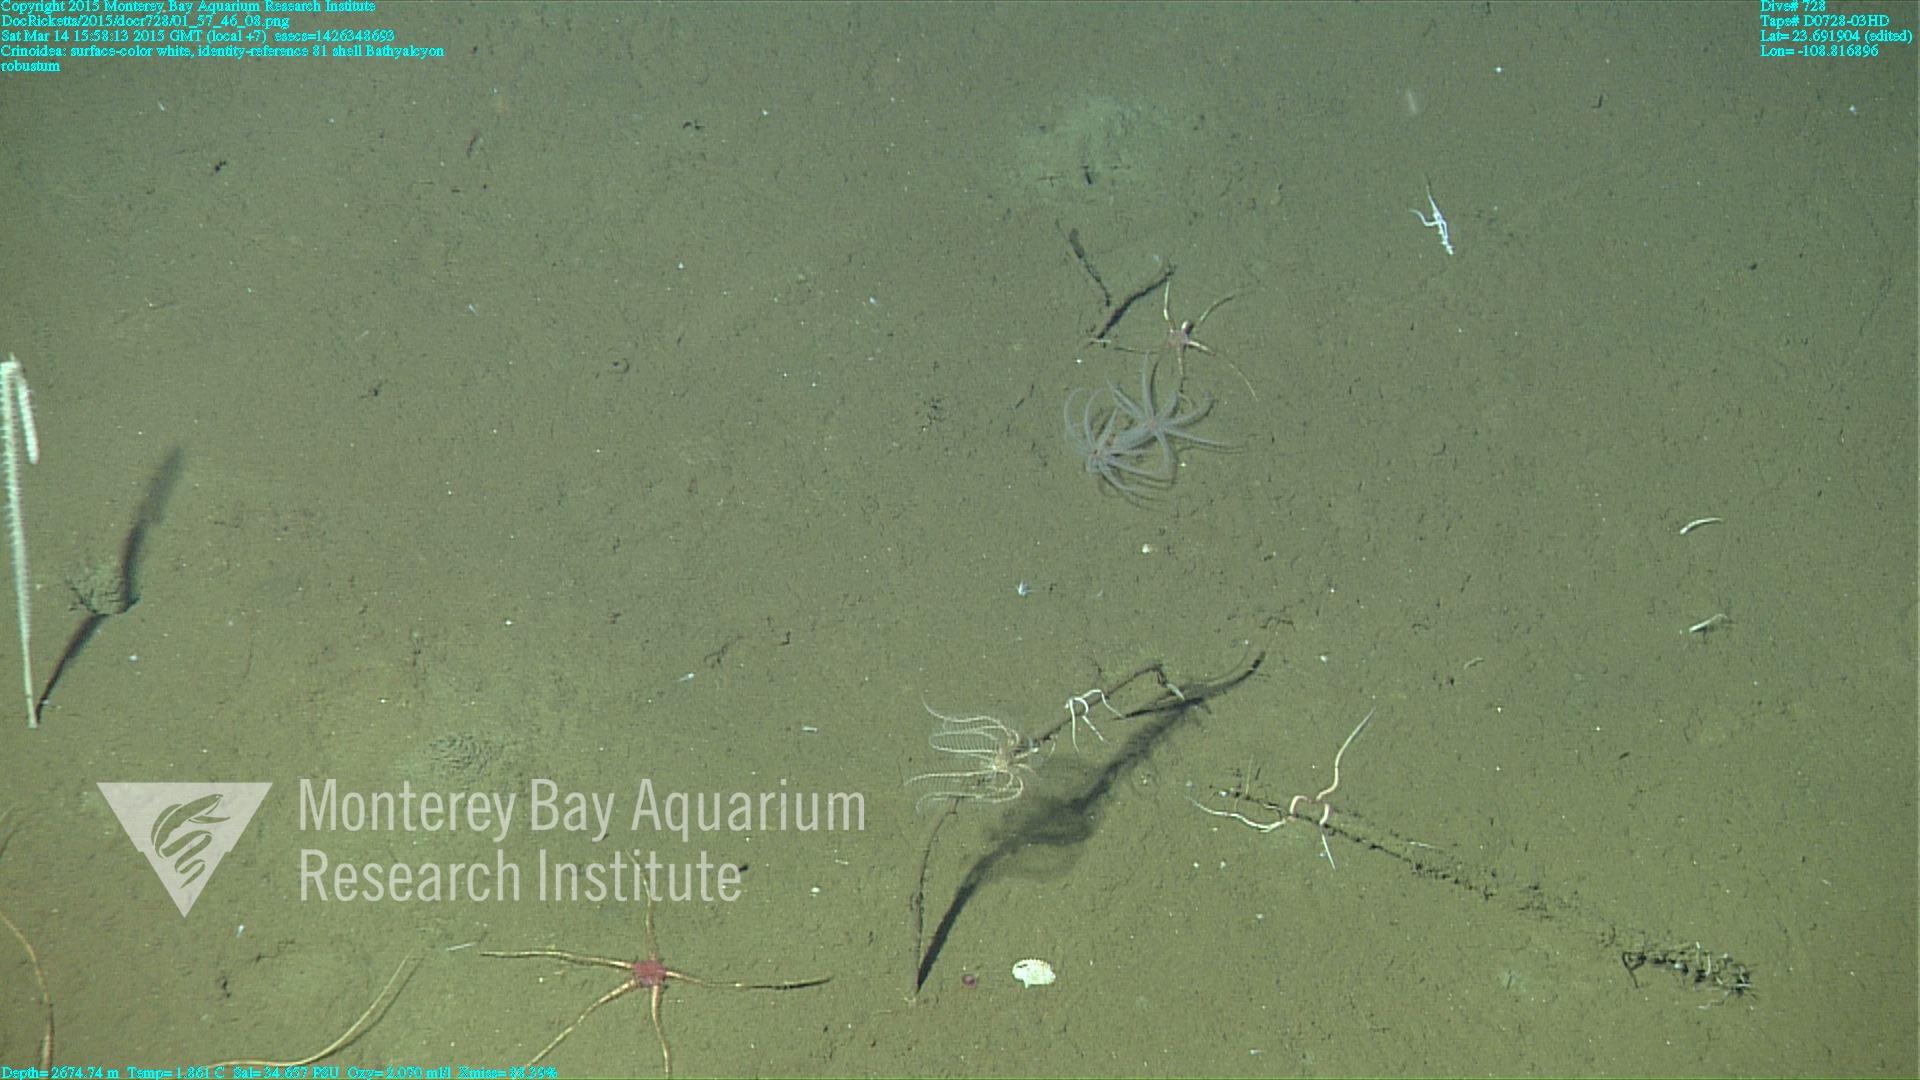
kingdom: Animalia
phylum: Cnidaria
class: Anthozoa
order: Scleralcyonacea
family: Coralliidae
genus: Bathyalcyon
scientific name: Bathyalcyon robustum
